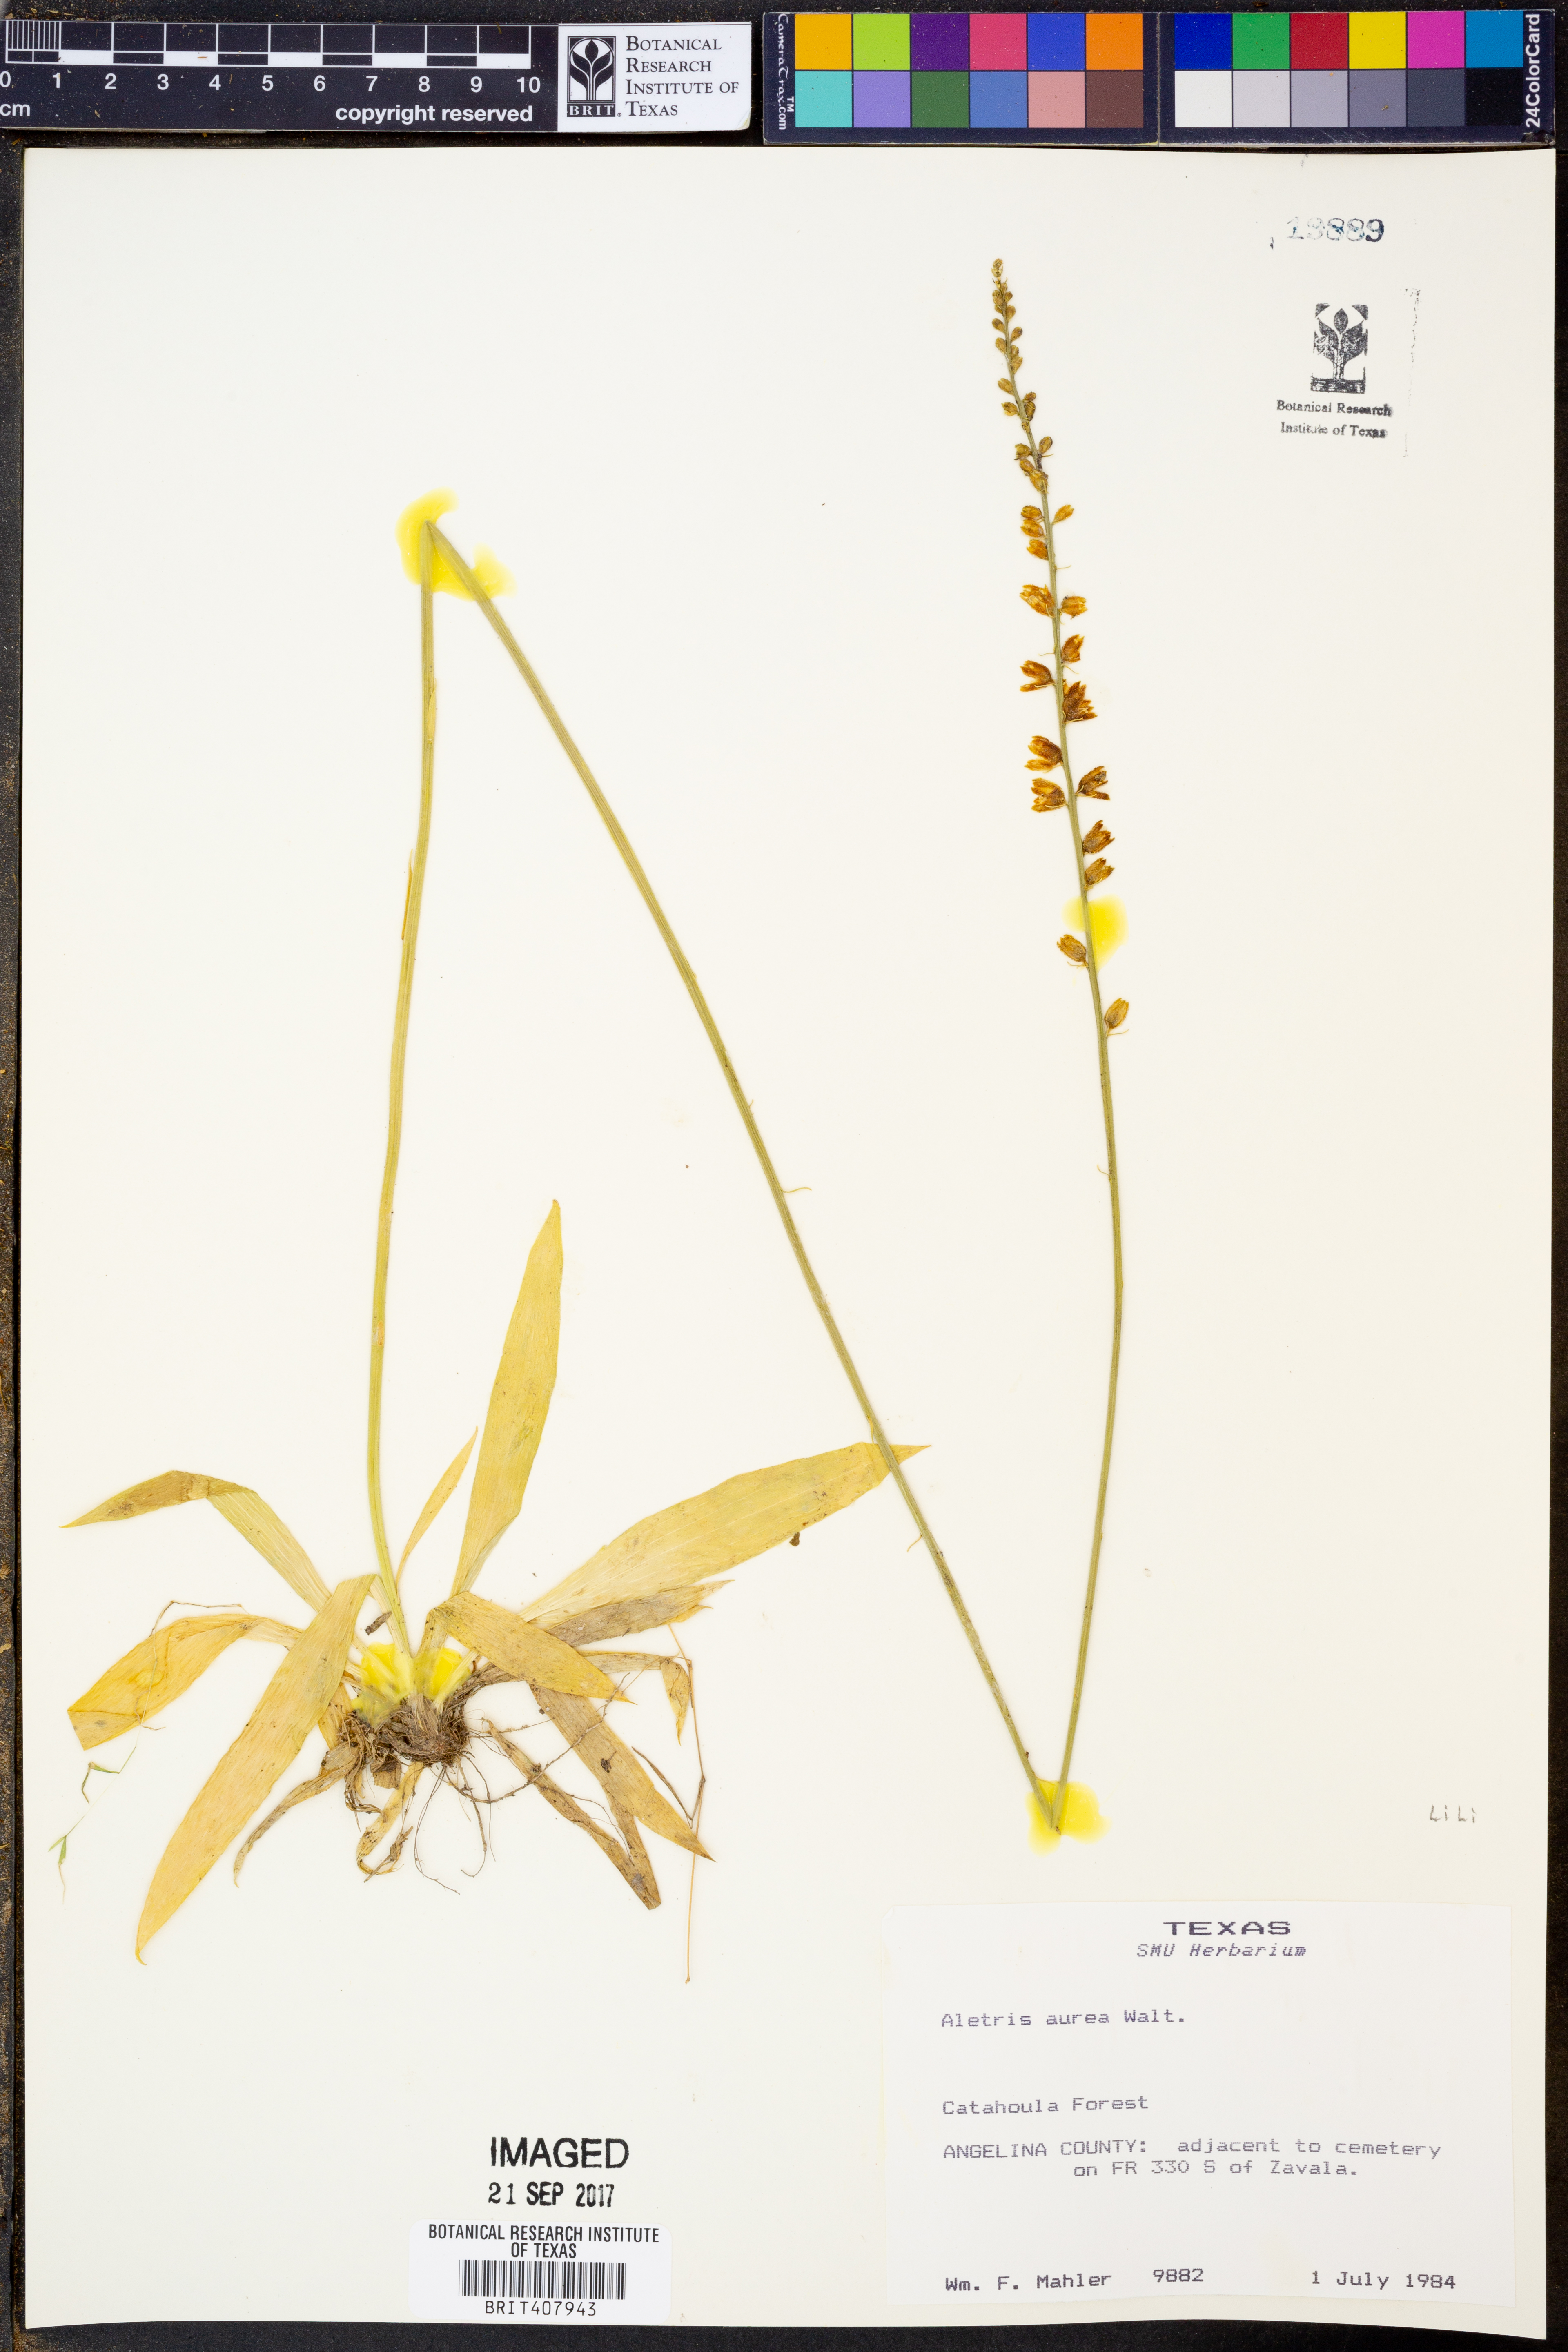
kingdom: Plantae
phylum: Tracheophyta
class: Liliopsida
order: Dioscoreales
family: Nartheciaceae
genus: Aletris
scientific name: Aletris aurea
